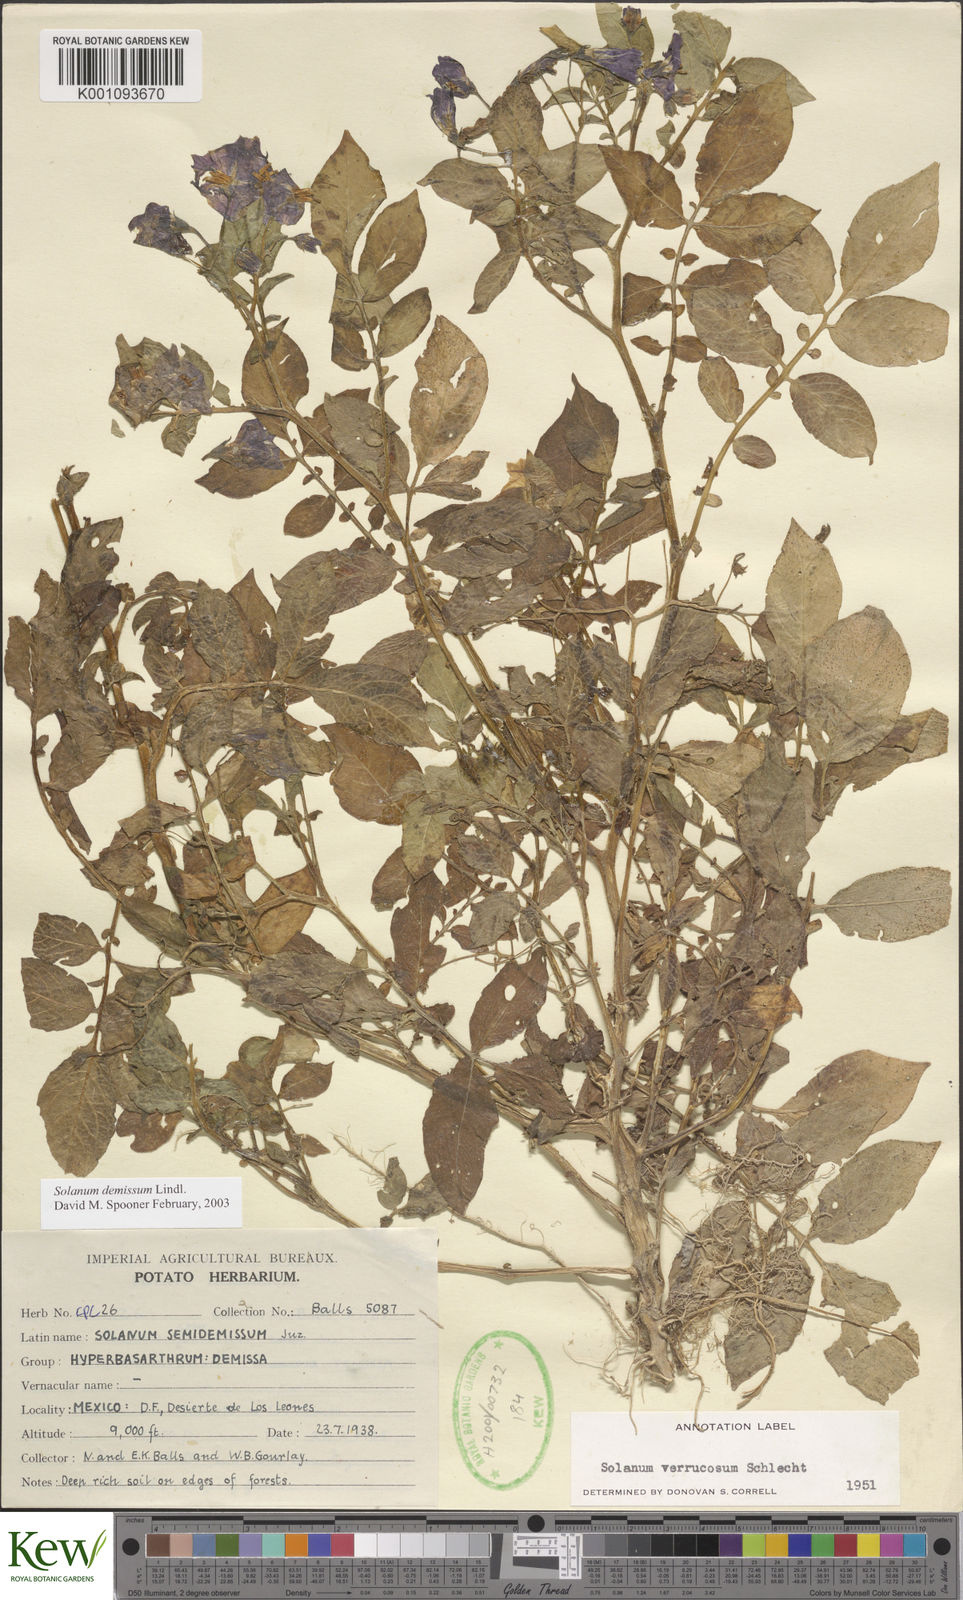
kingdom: Plantae
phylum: Tracheophyta
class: Magnoliopsida
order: Solanales
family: Solanaceae
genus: Solanum
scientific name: Solanum demissum
